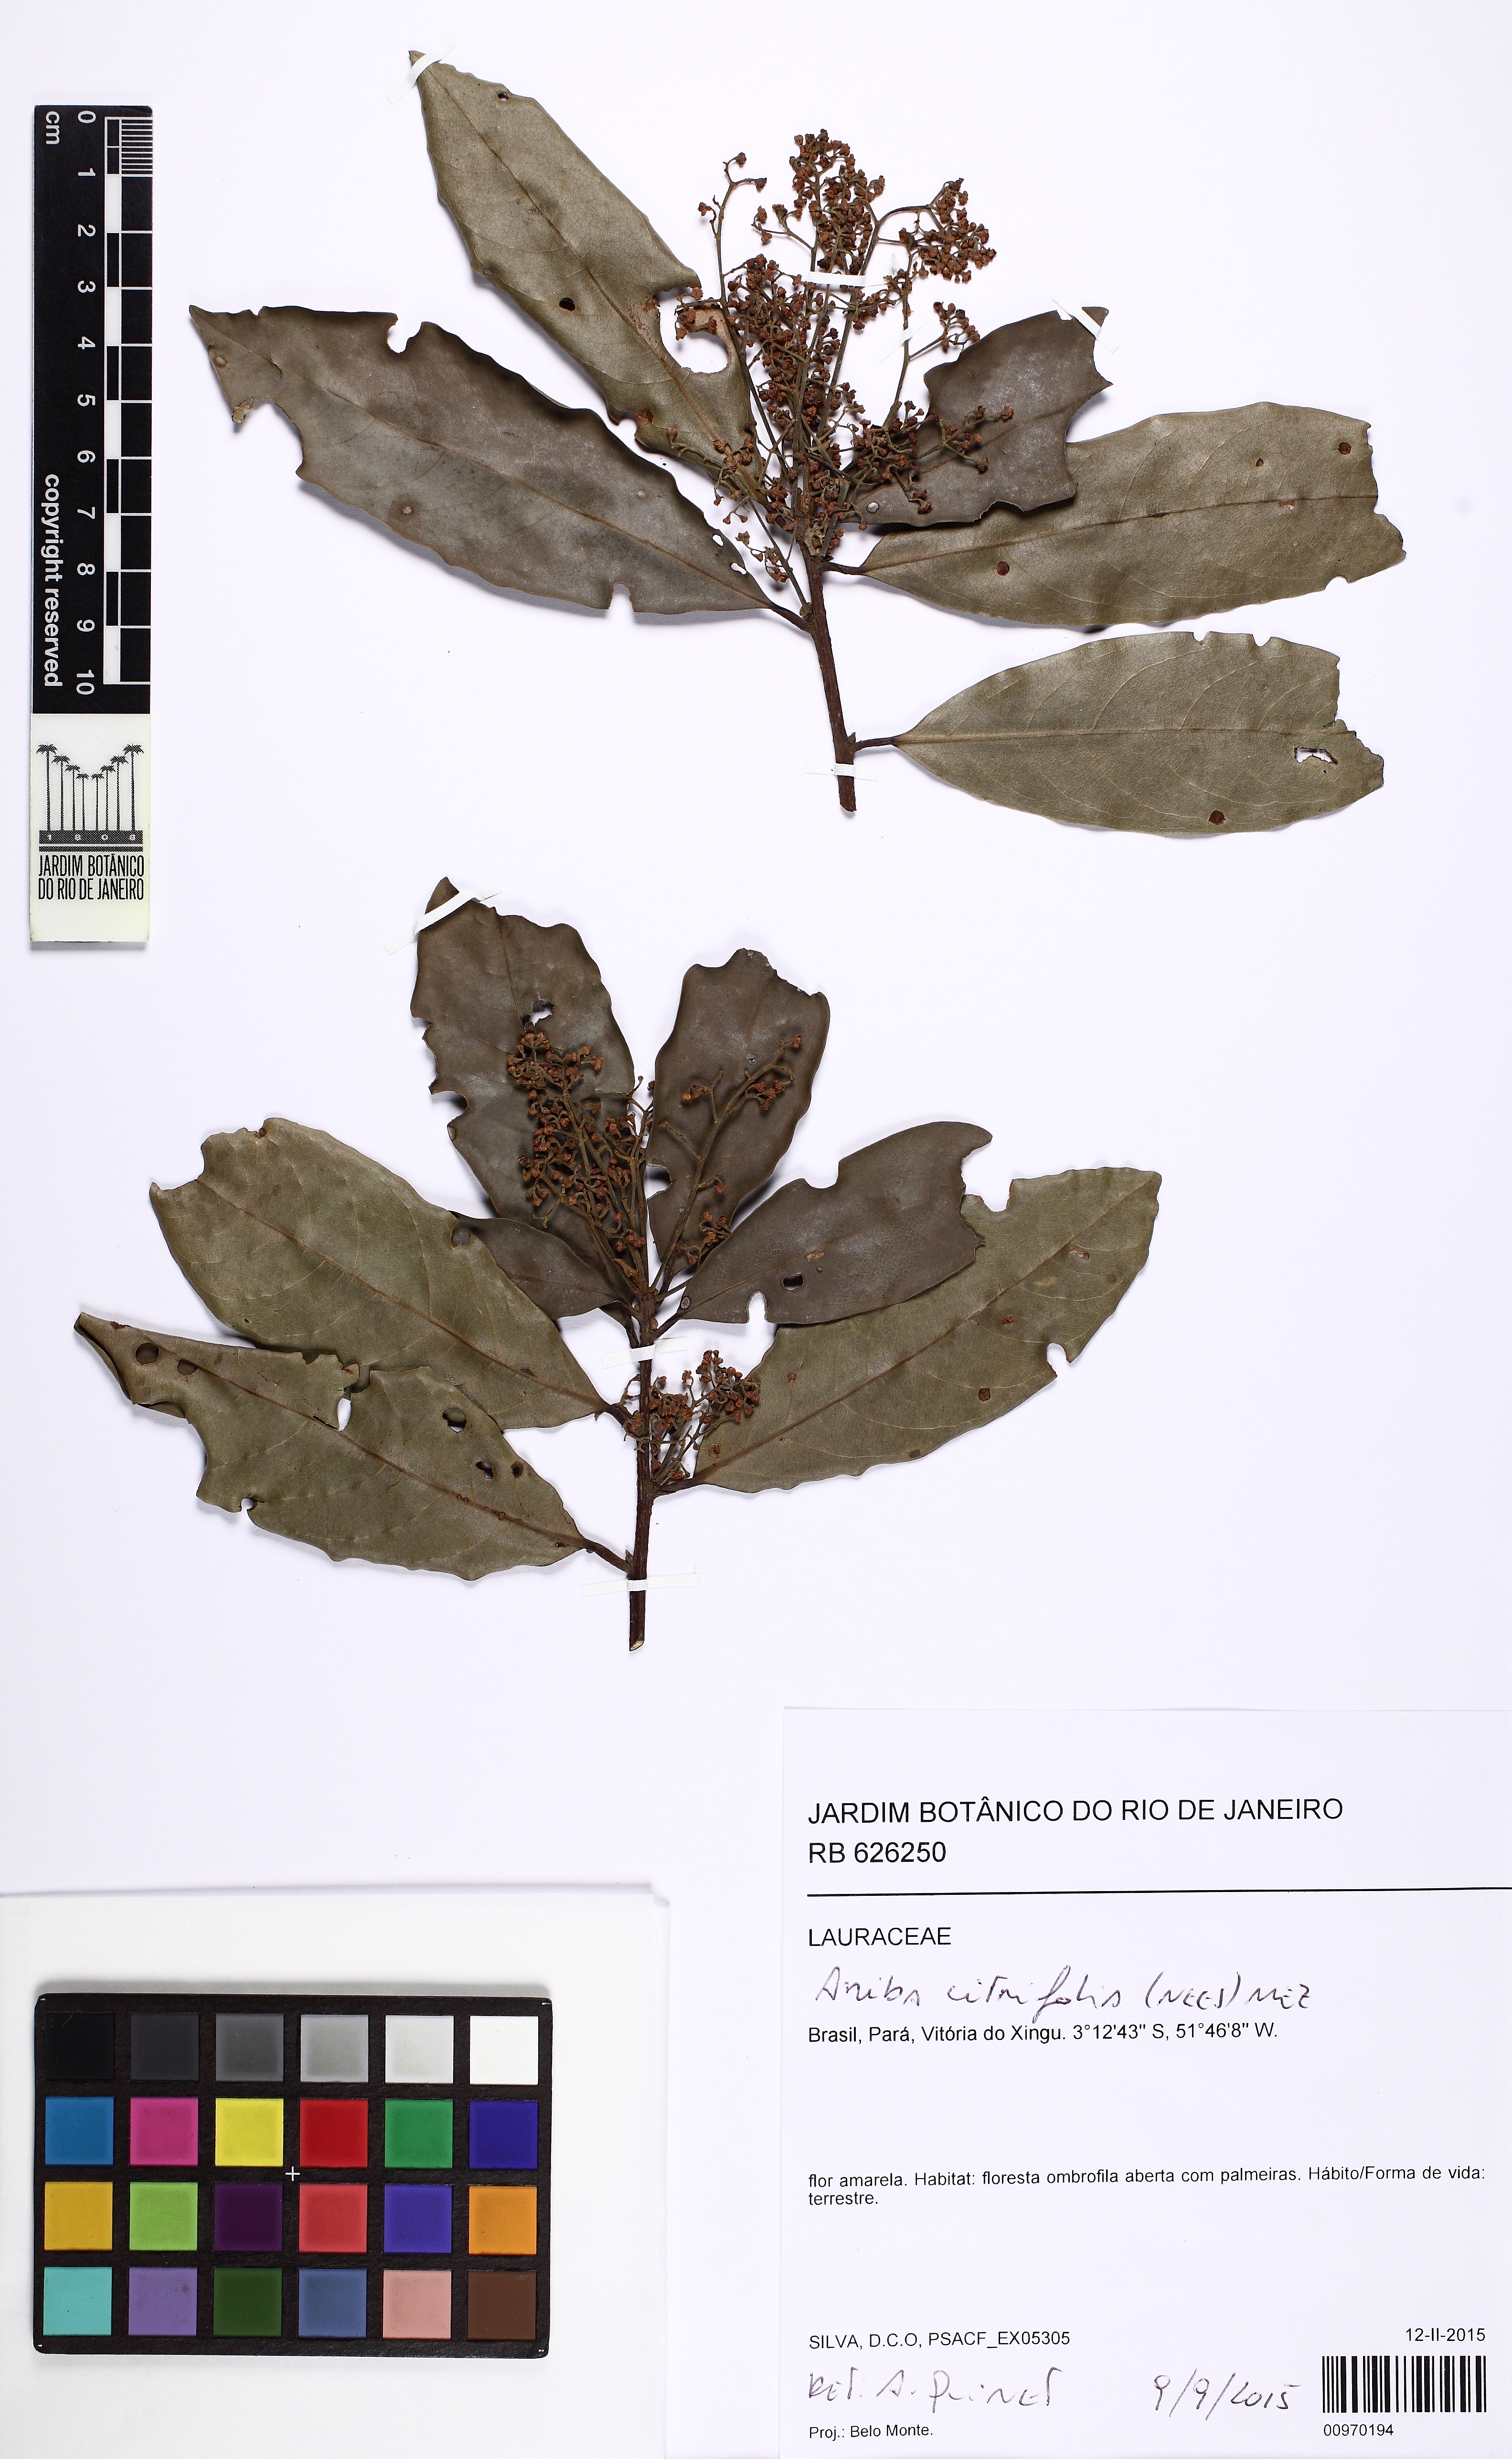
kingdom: Plantae
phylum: Tracheophyta
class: Magnoliopsida
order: Laurales
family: Lauraceae
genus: Aniba
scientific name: Aniba citrifolia
